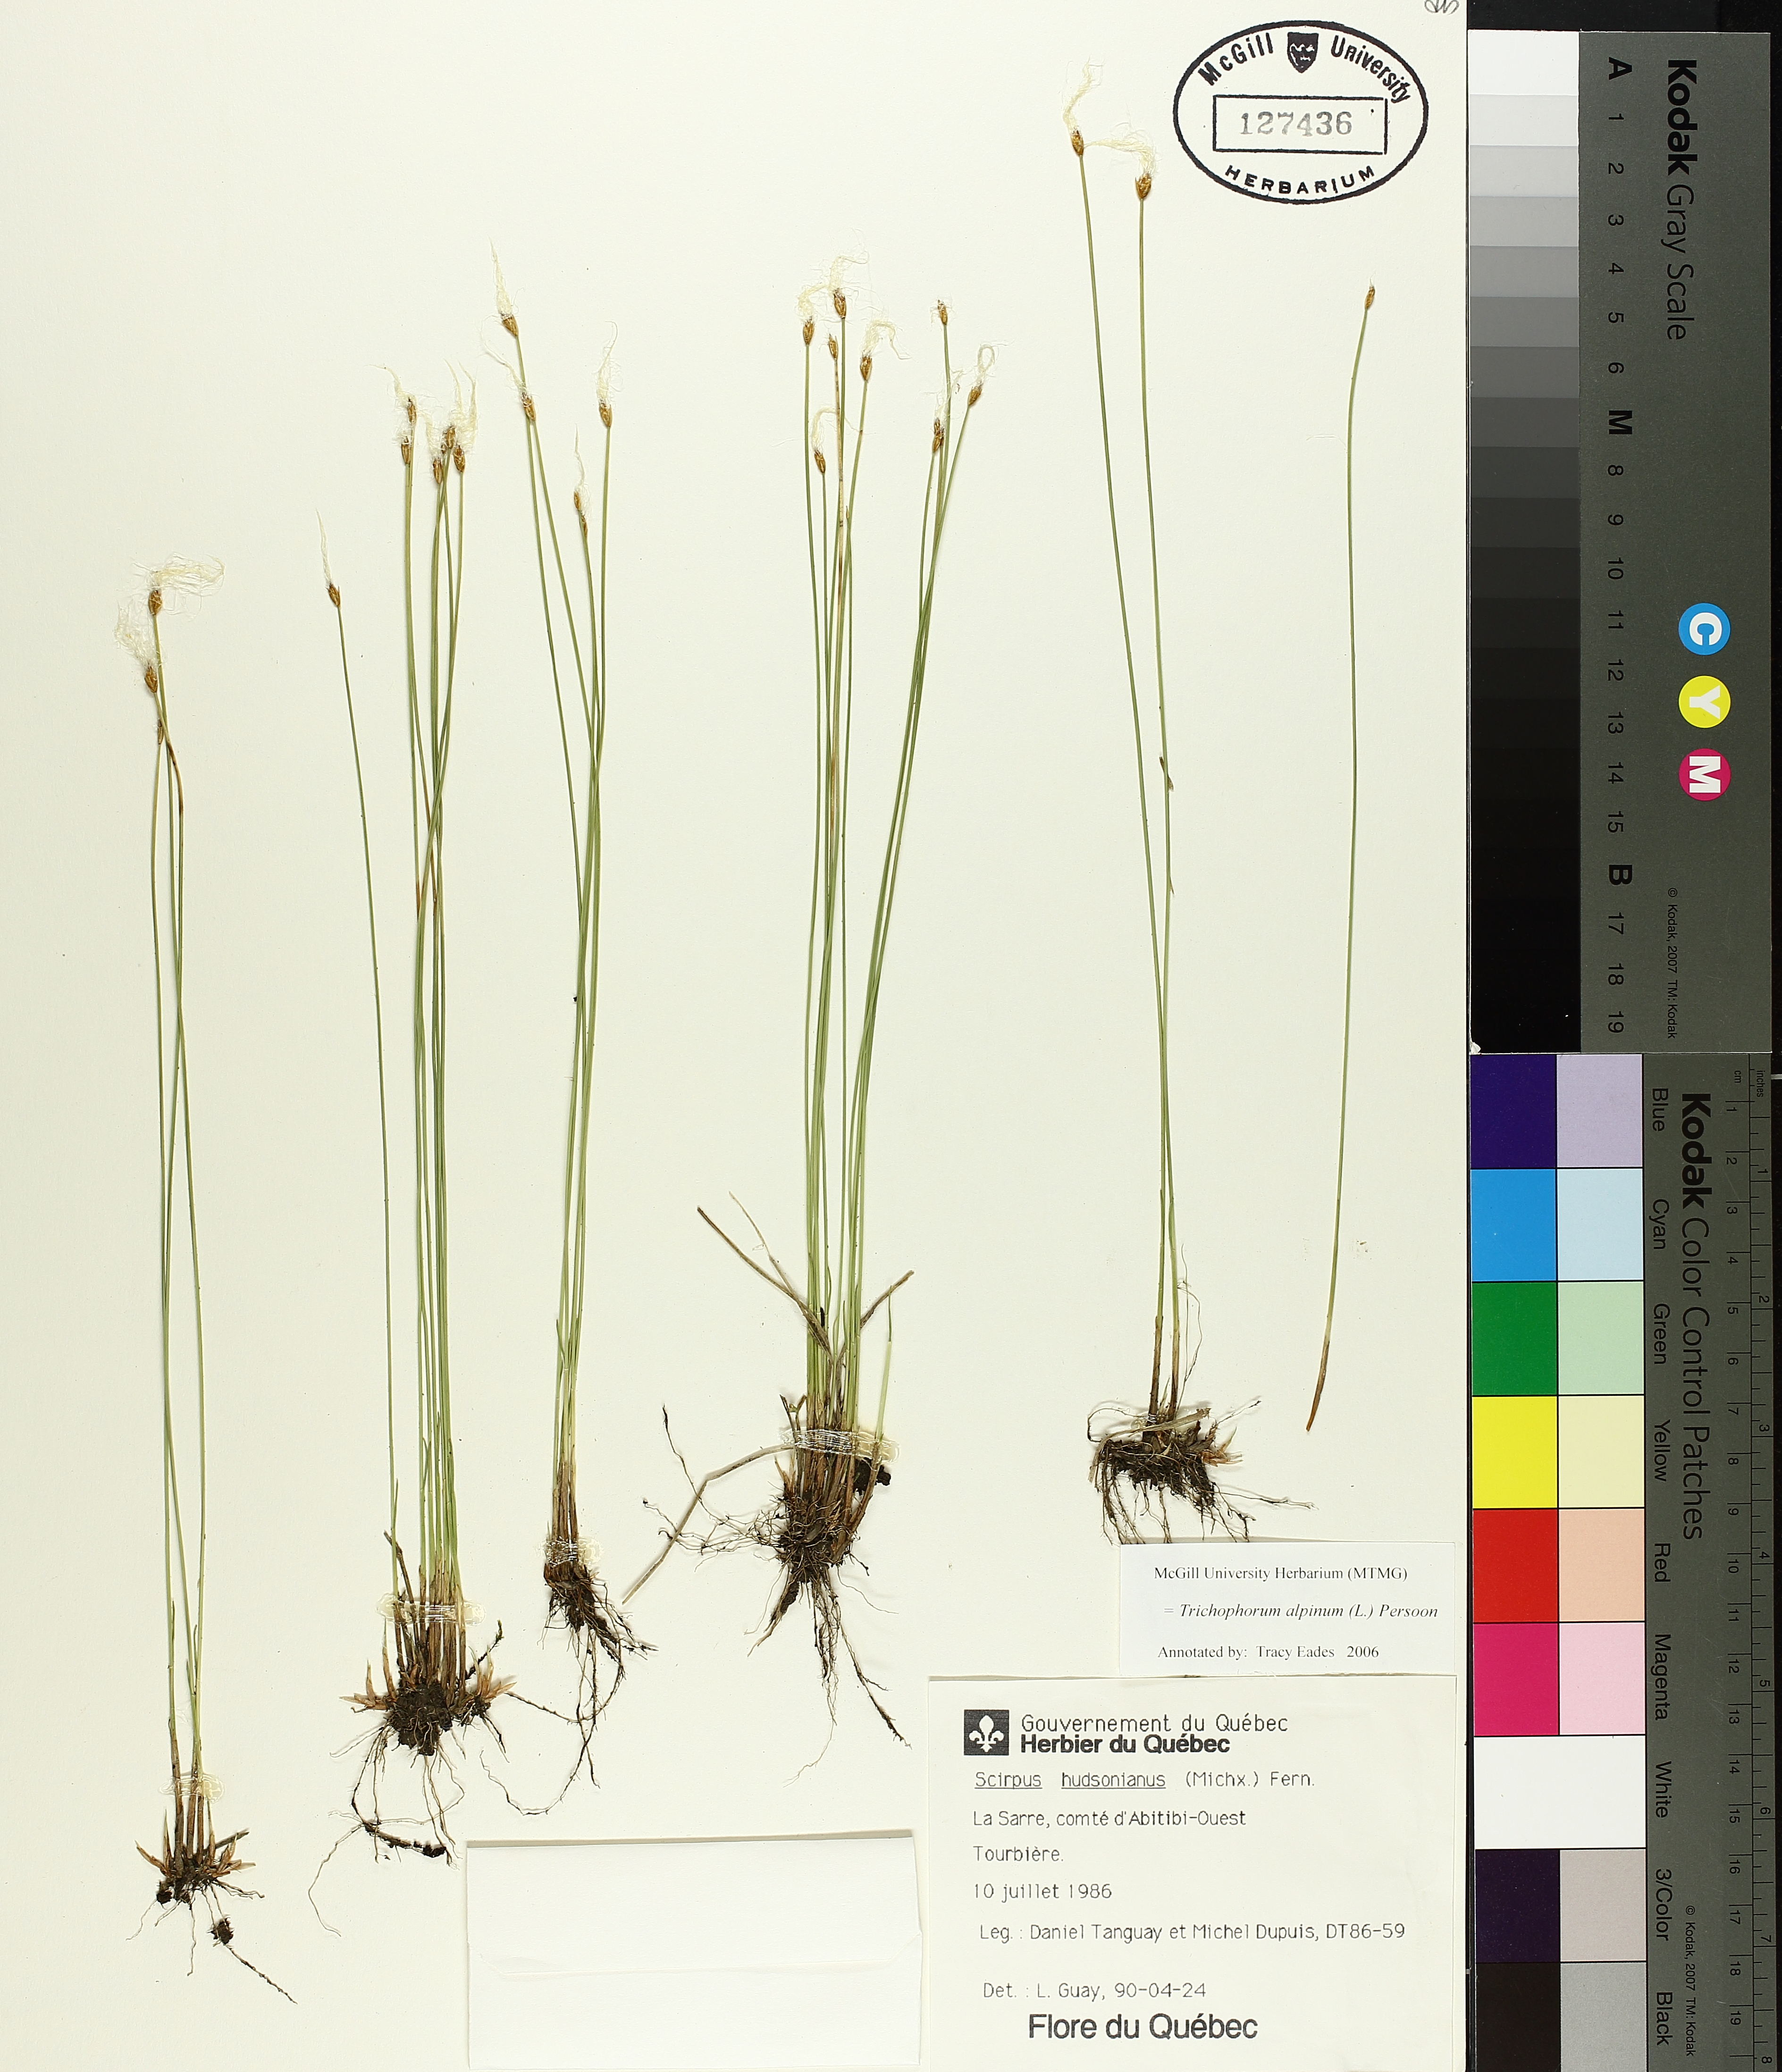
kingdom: Plantae
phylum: Tracheophyta
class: Liliopsida
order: Poales
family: Cyperaceae
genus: Trichophorum
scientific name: Trichophorum alpinum
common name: Alpine bulrush
